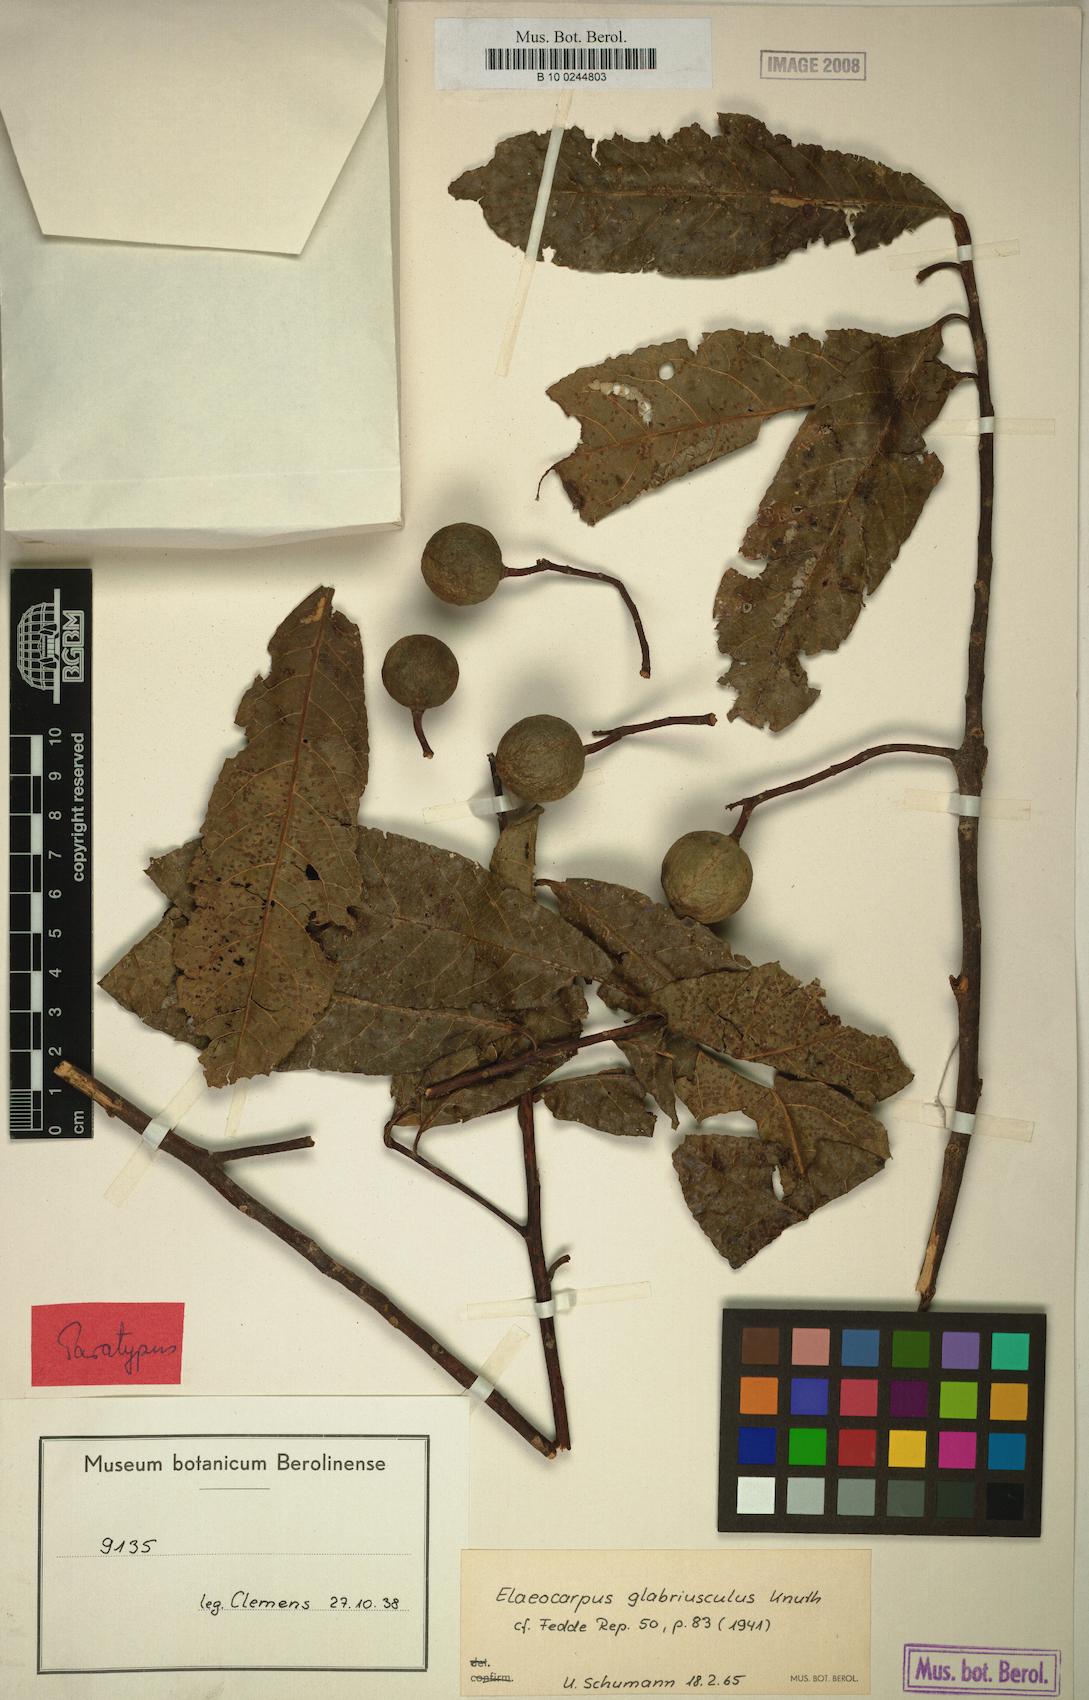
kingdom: Plantae
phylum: Tracheophyta
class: Magnoliopsida
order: Oxalidales
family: Elaeocarpaceae
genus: Elaeocarpus
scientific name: Elaeocarpus kaniensis
